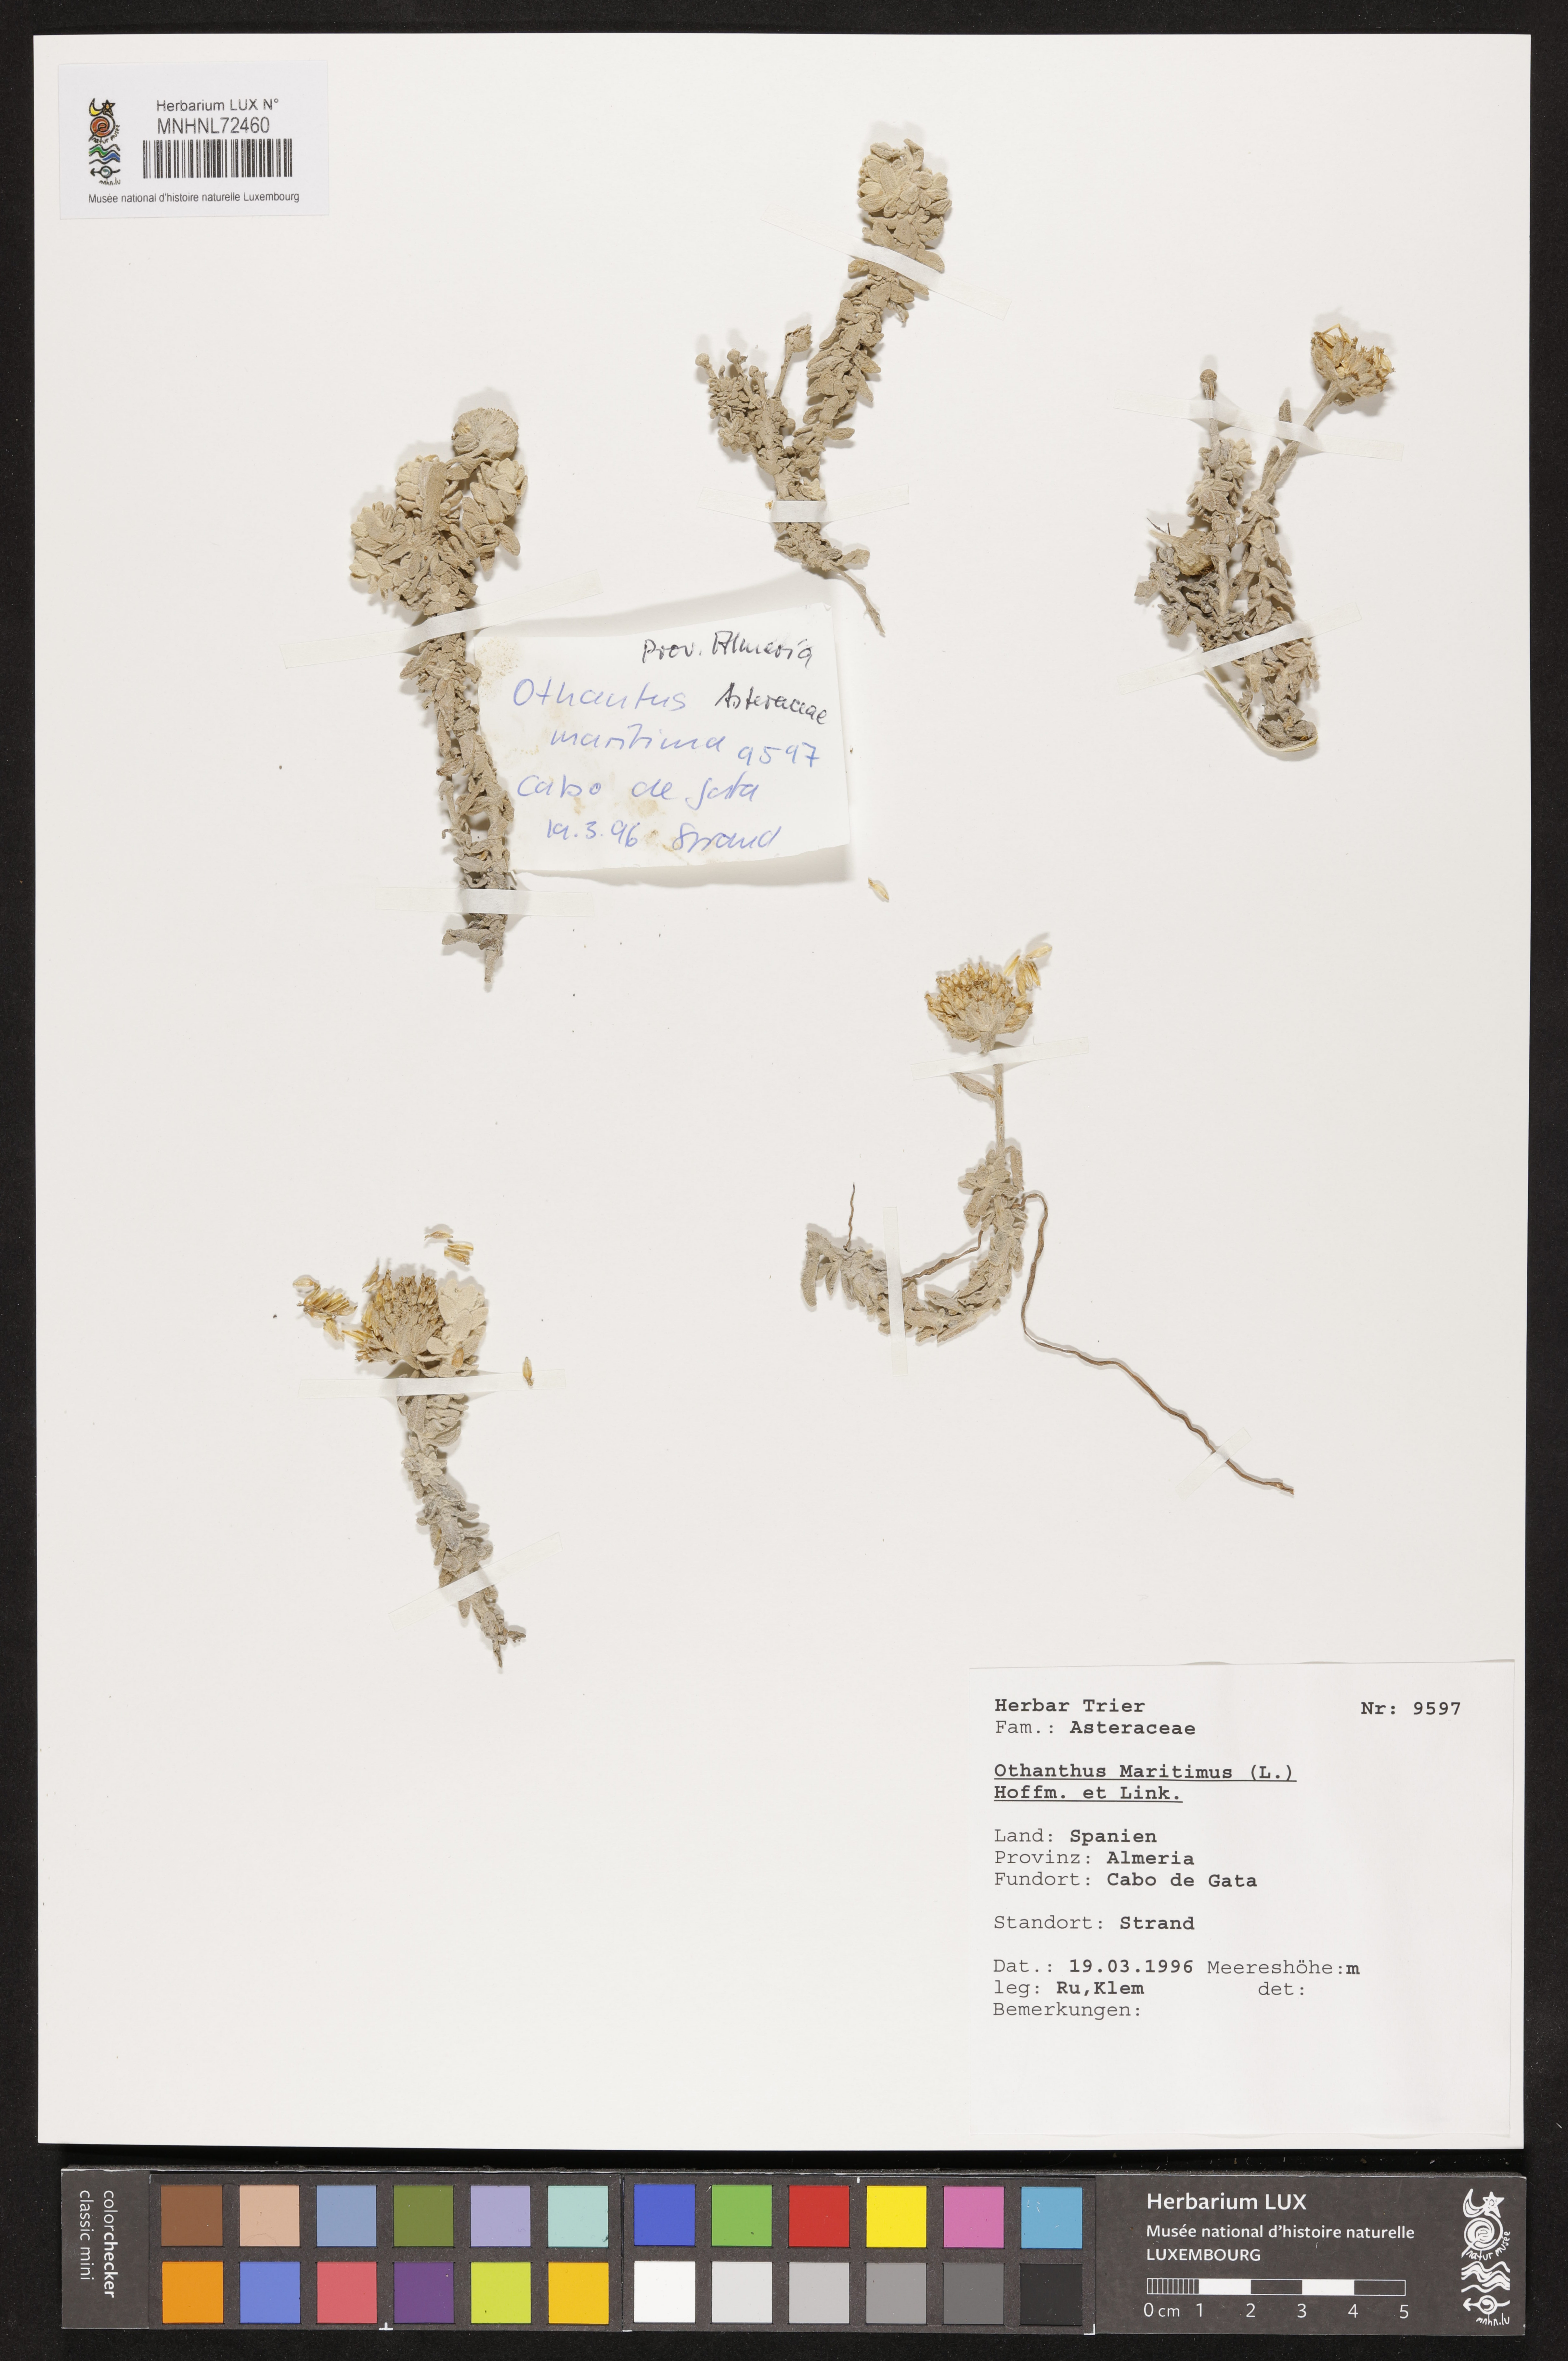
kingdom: Plantae
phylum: Tracheophyta
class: Magnoliopsida
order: Asterales
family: Asteraceae
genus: Achillea
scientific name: Achillea maritima
